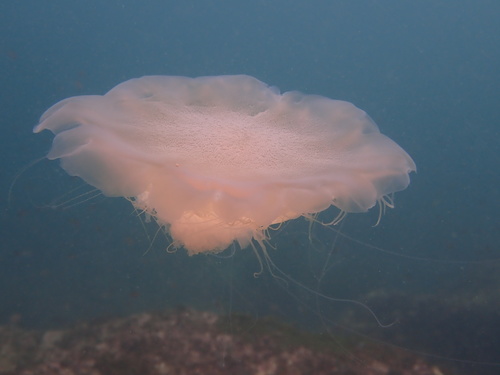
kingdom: Animalia
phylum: Cnidaria
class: Scyphozoa
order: Semaeostomeae
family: Cyaneidae
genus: Cyanea
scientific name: Cyanea nozakii
